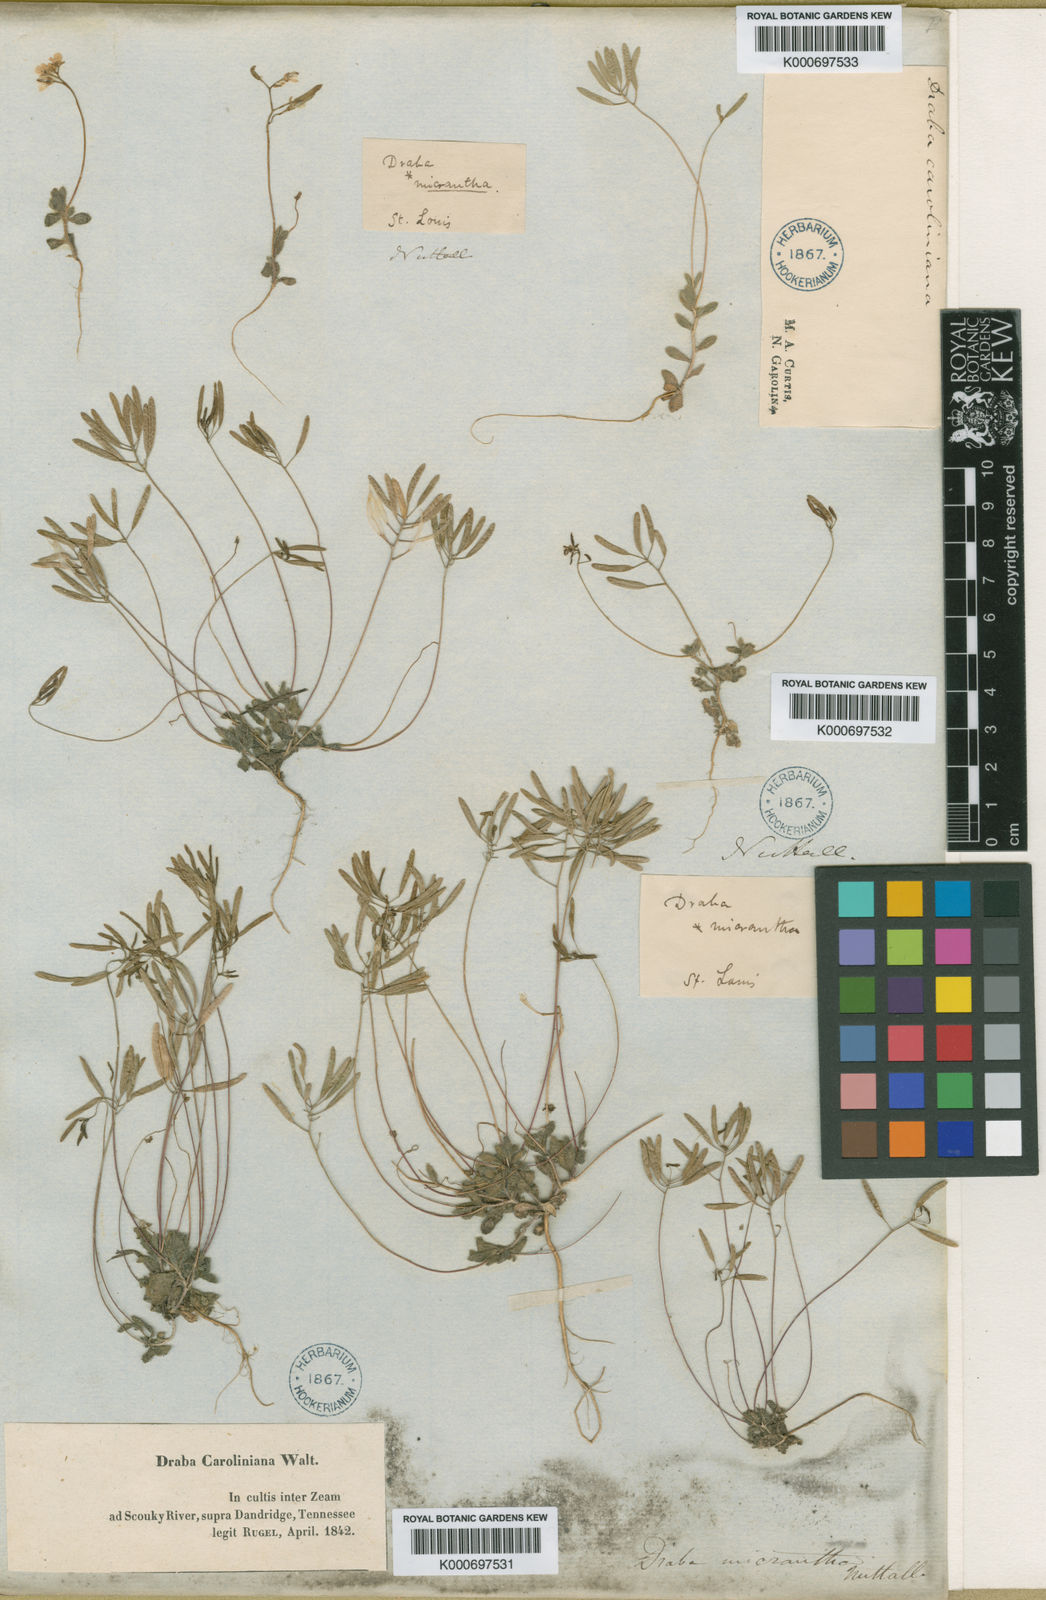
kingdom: Plantae
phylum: Tracheophyta
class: Magnoliopsida
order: Brassicales
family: Brassicaceae
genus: Tomostima
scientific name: Tomostima reptans
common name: Carolina draba
